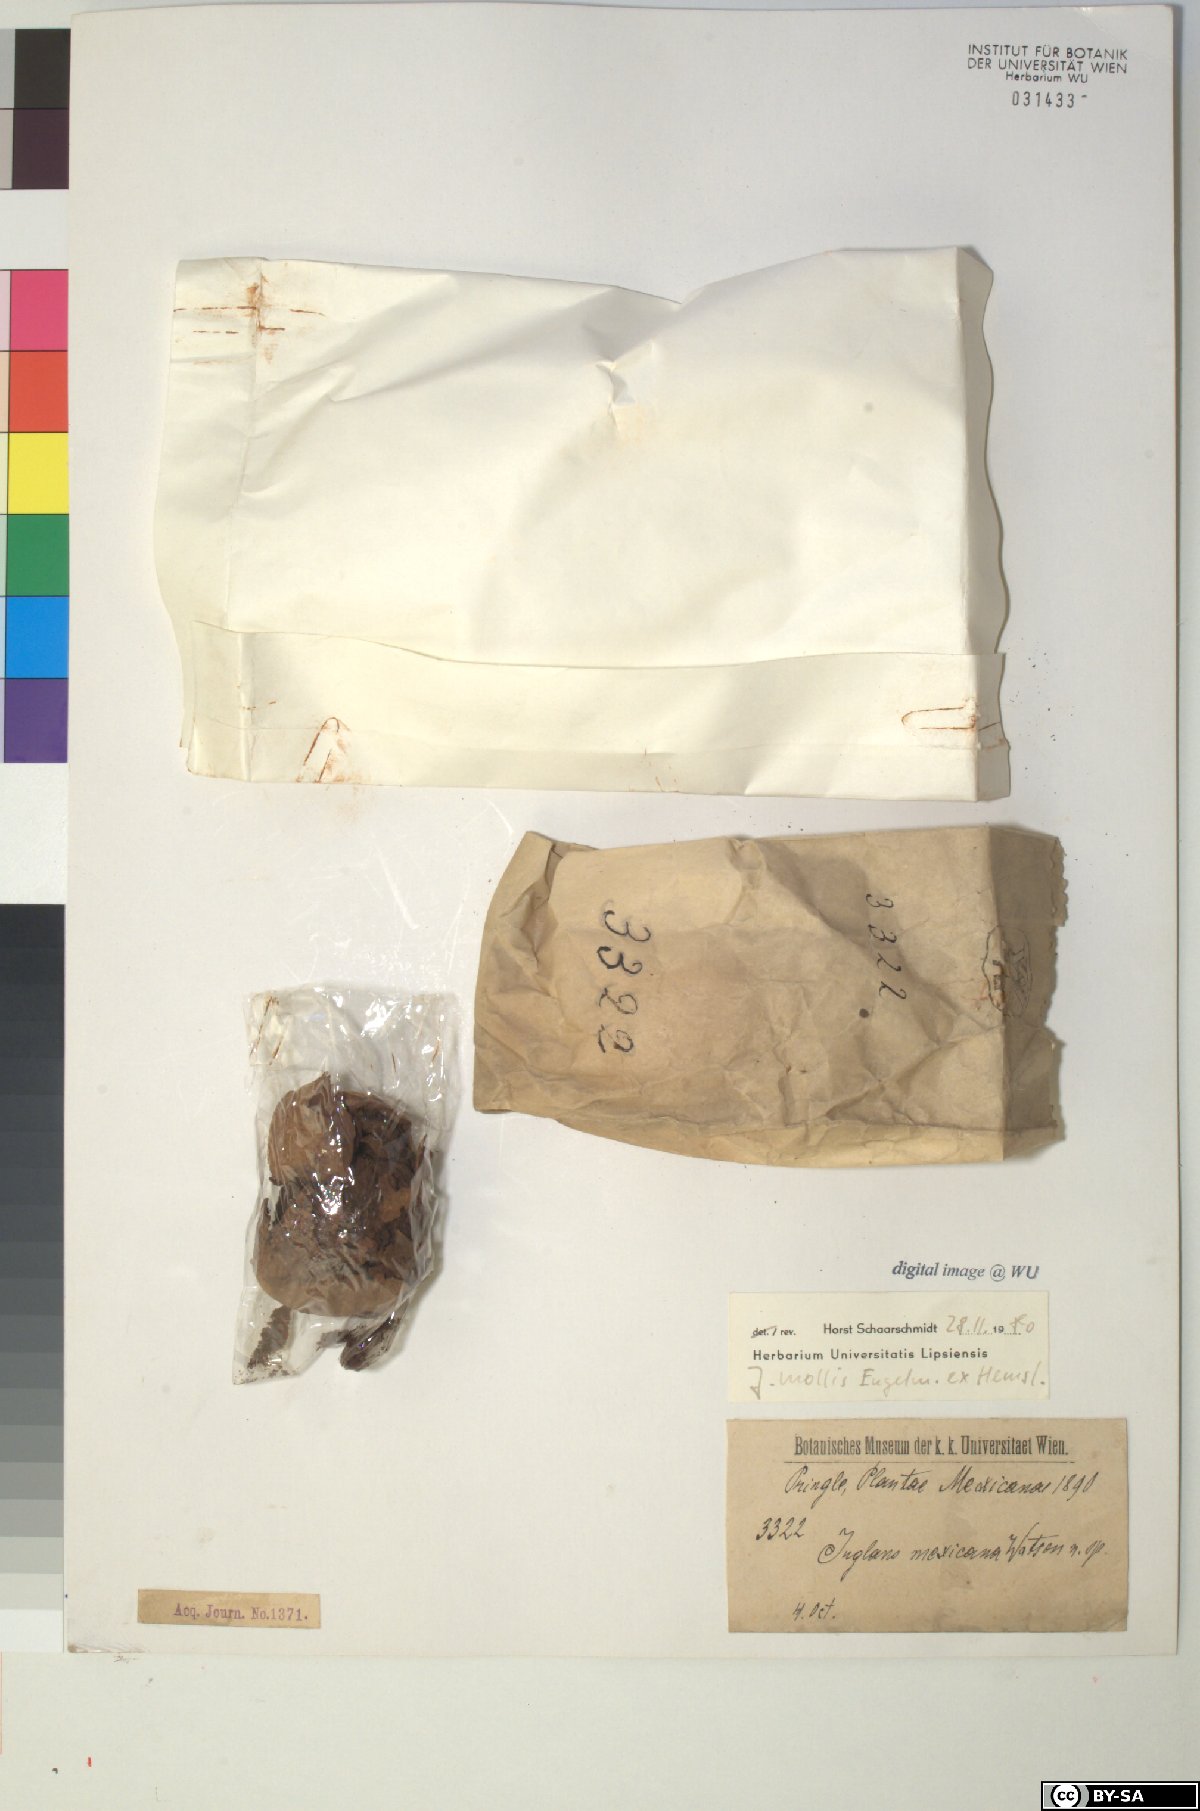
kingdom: Plantae
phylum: Tracheophyta
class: Magnoliopsida
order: Fagales
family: Juglandaceae
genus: Juglans
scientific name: Juglans mollis
